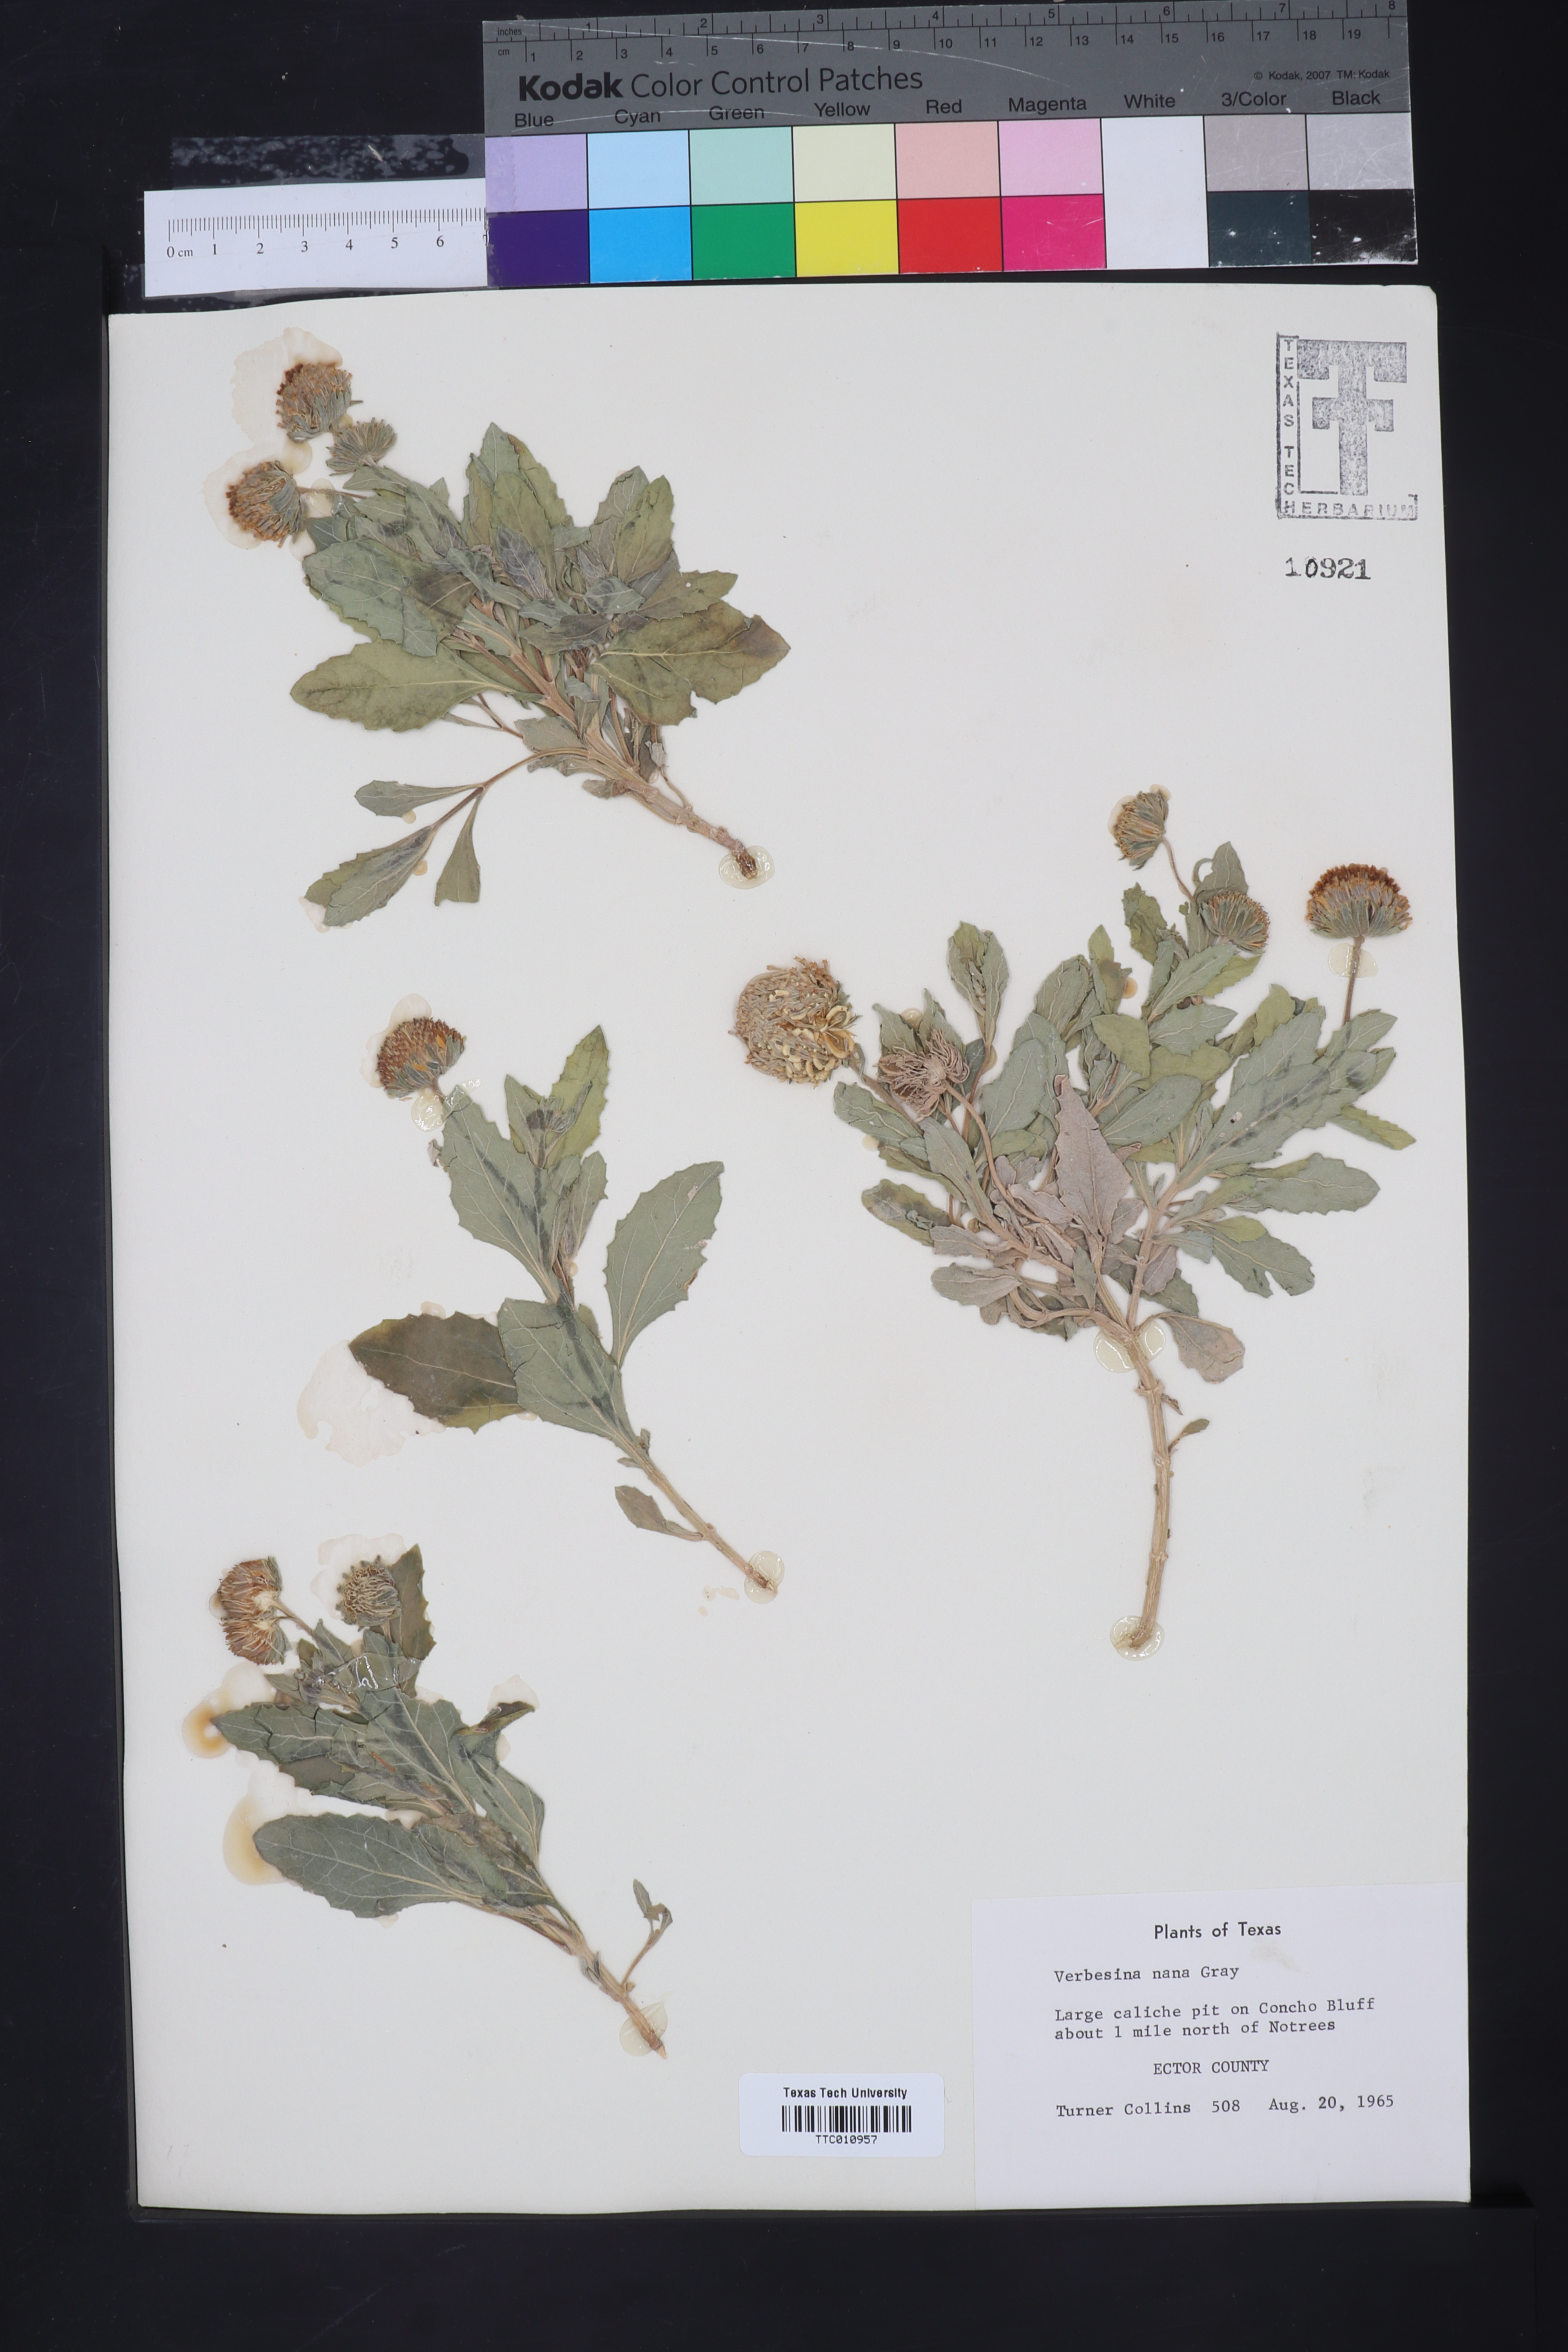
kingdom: Plantae
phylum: Tracheophyta
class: Magnoliopsida
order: Asterales
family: Asteraceae
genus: Verbesina
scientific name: Verbesina nana
